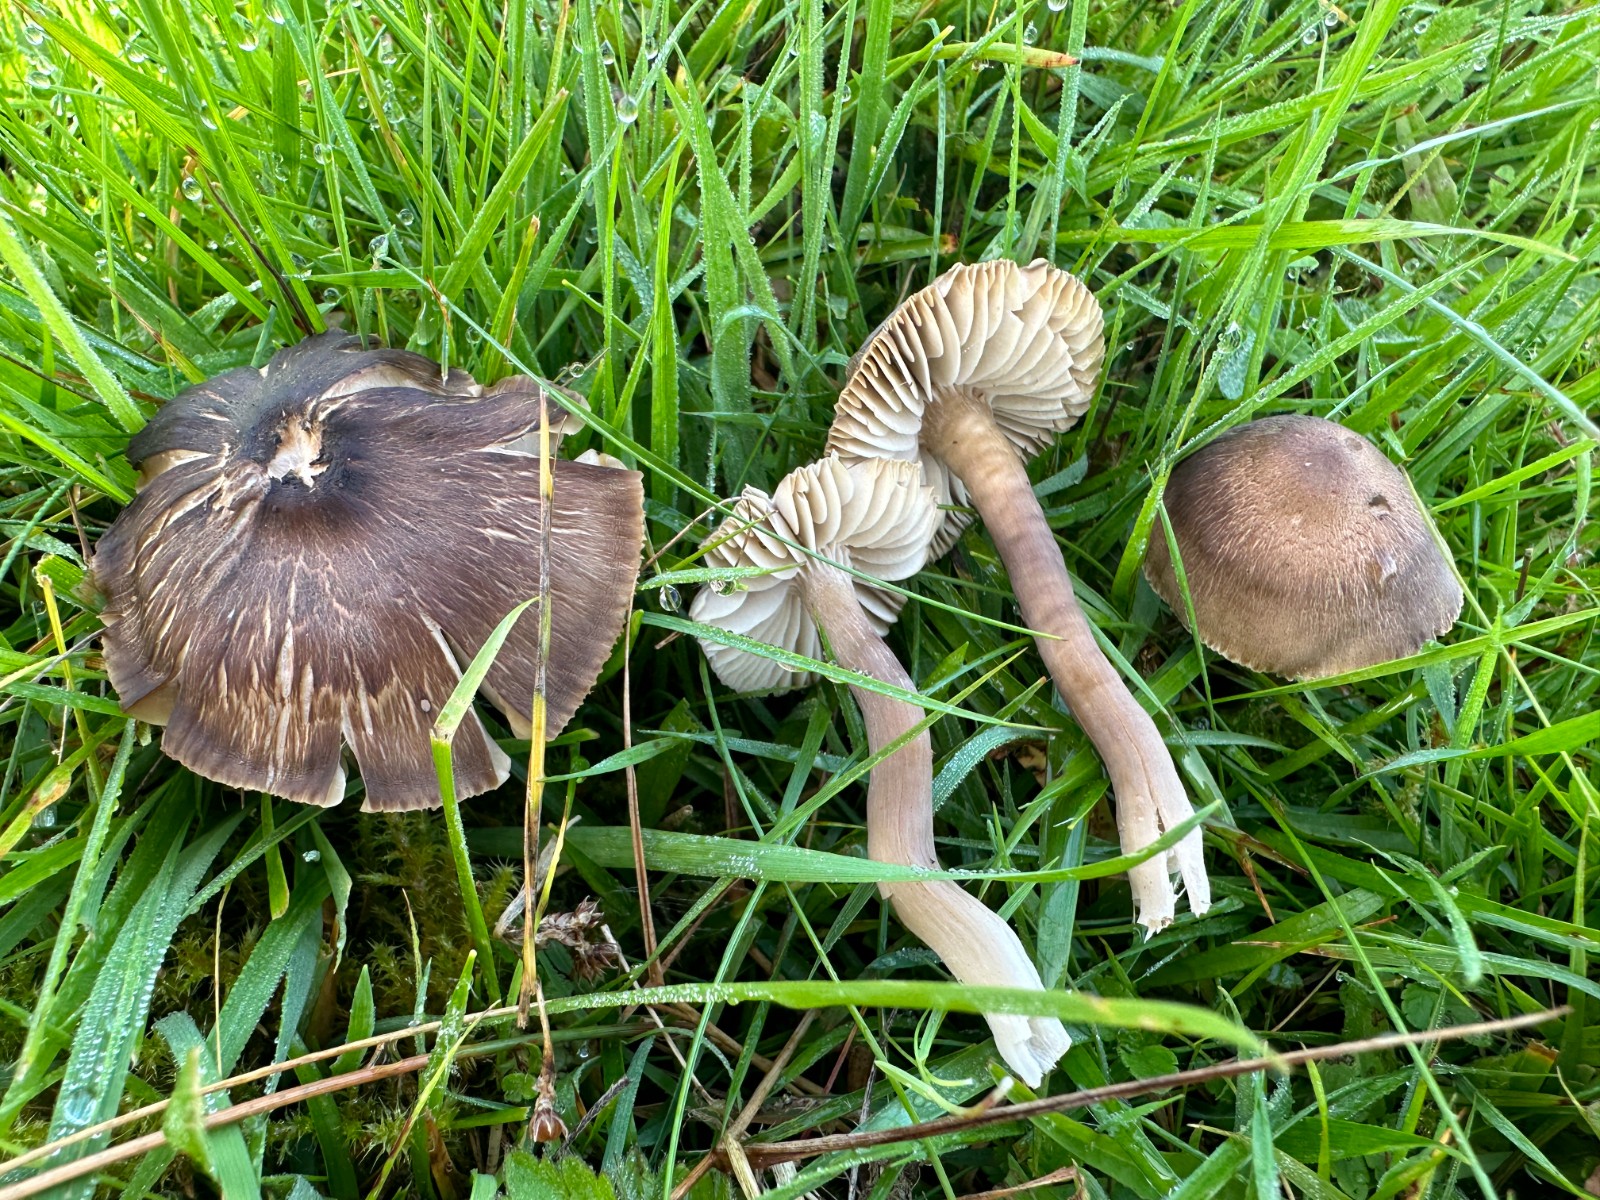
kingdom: Fungi
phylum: Basidiomycota
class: Agaricomycetes
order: Agaricales
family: Hygrophoraceae
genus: Neohygrocybe
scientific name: Neohygrocybe nitrata
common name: stinkende vokshat
